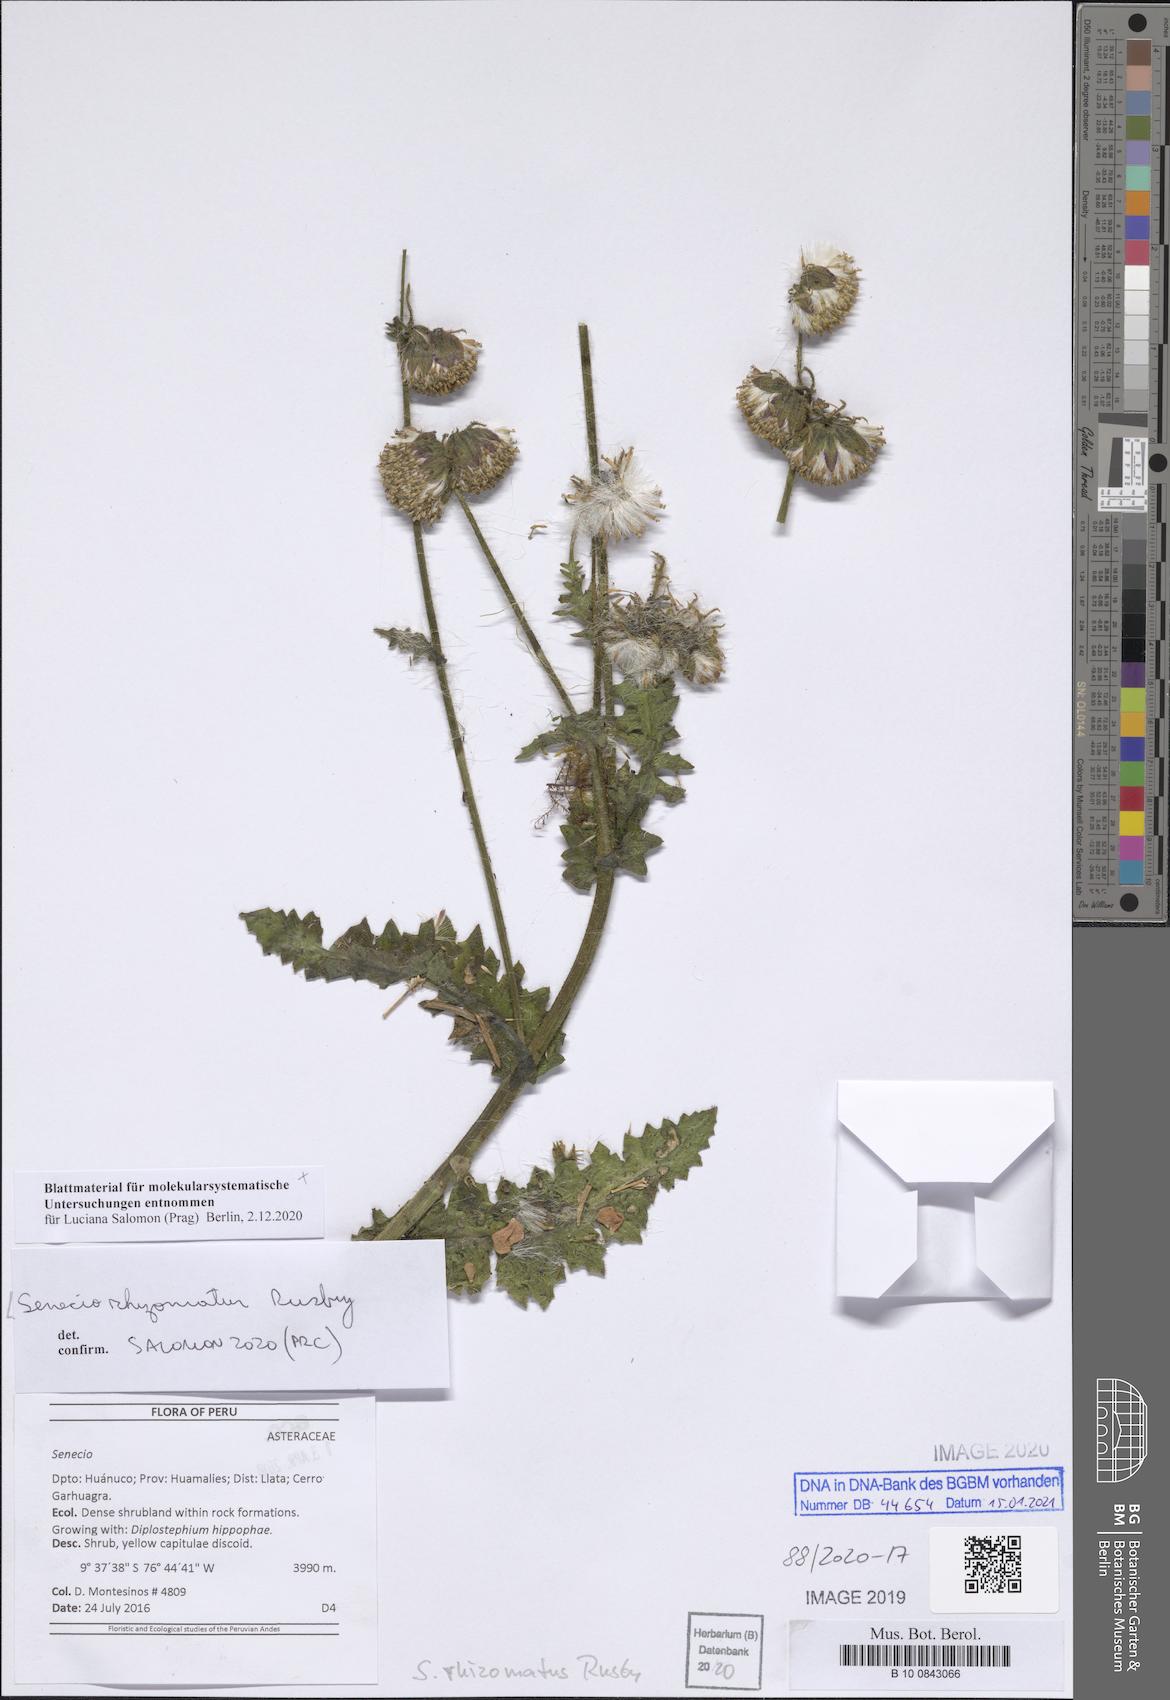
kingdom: Plantae
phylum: Tracheophyta
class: Magnoliopsida
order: Asterales
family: Asteraceae
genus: Senecio
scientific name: Senecio hyoseridifolius
